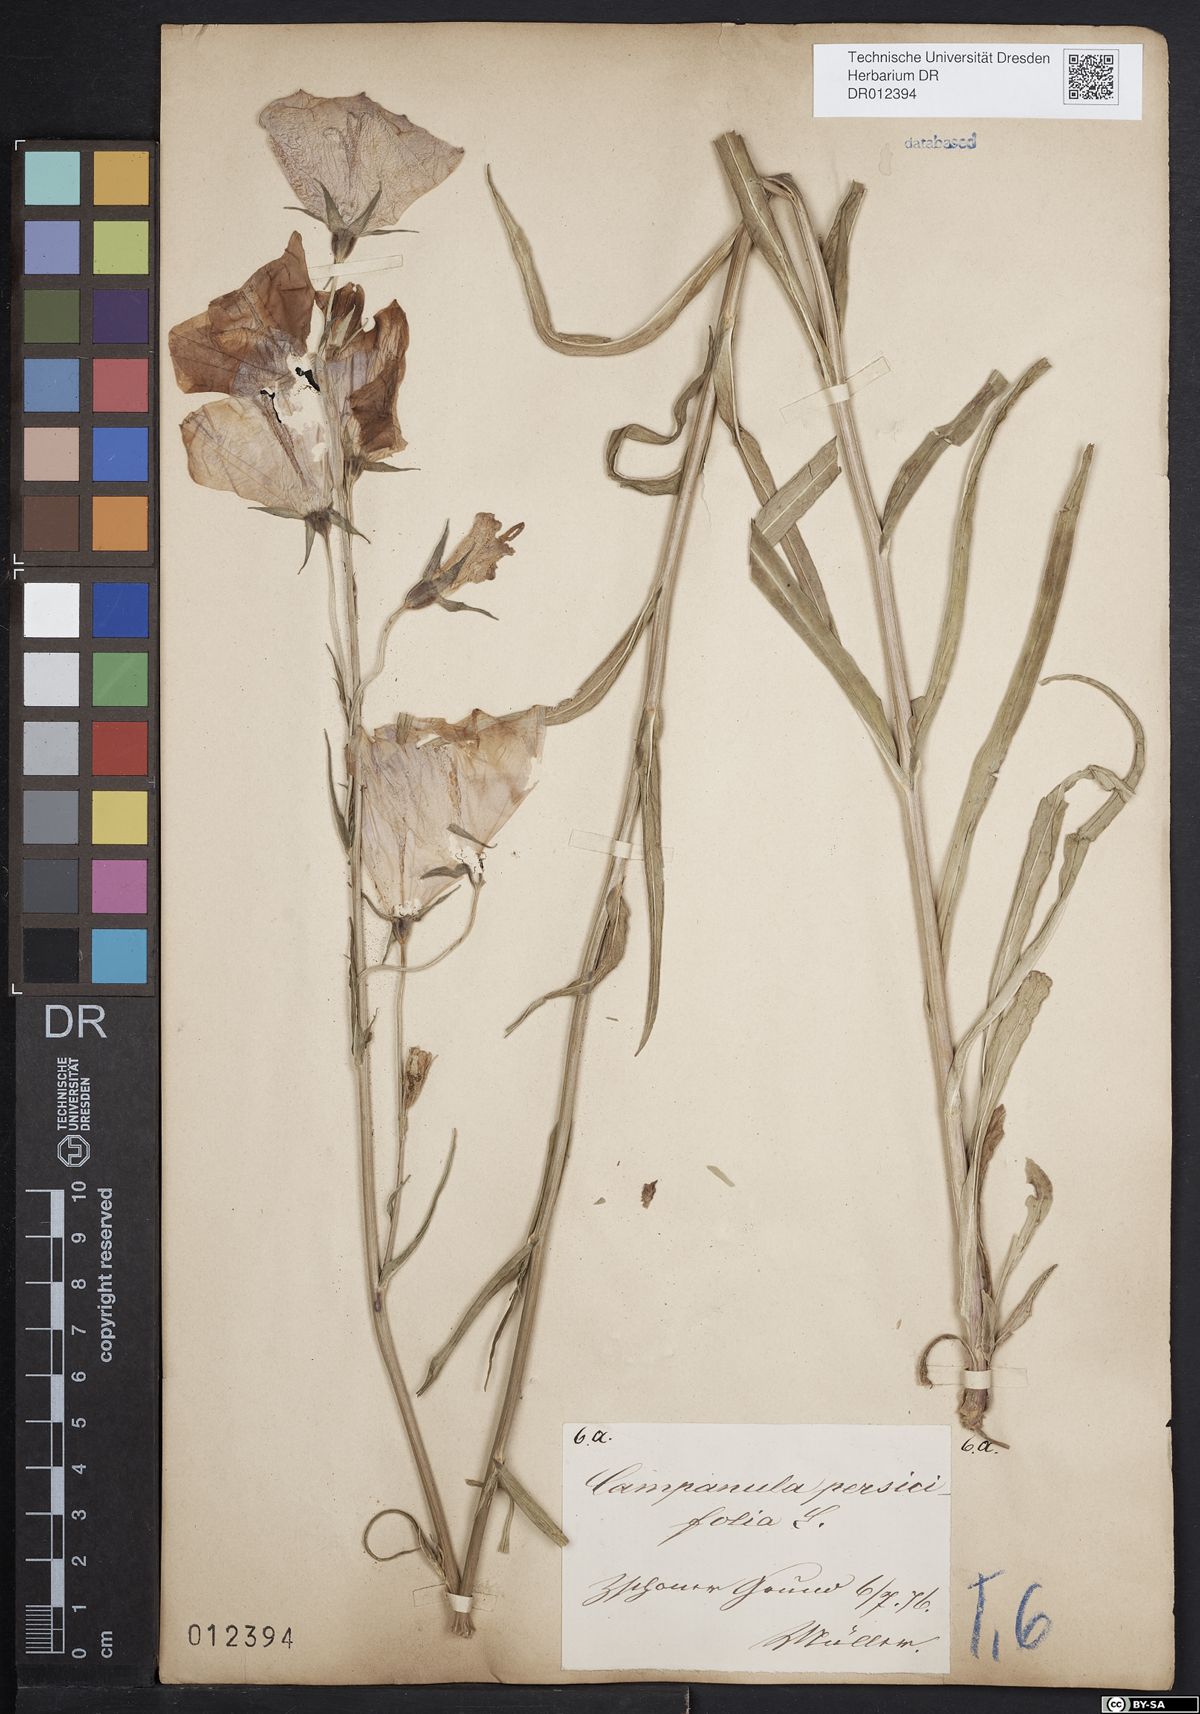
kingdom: Plantae
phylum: Tracheophyta
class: Magnoliopsida
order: Asterales
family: Campanulaceae
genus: Campanula
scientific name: Campanula persicifolia
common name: Peach-leaved bellflower
